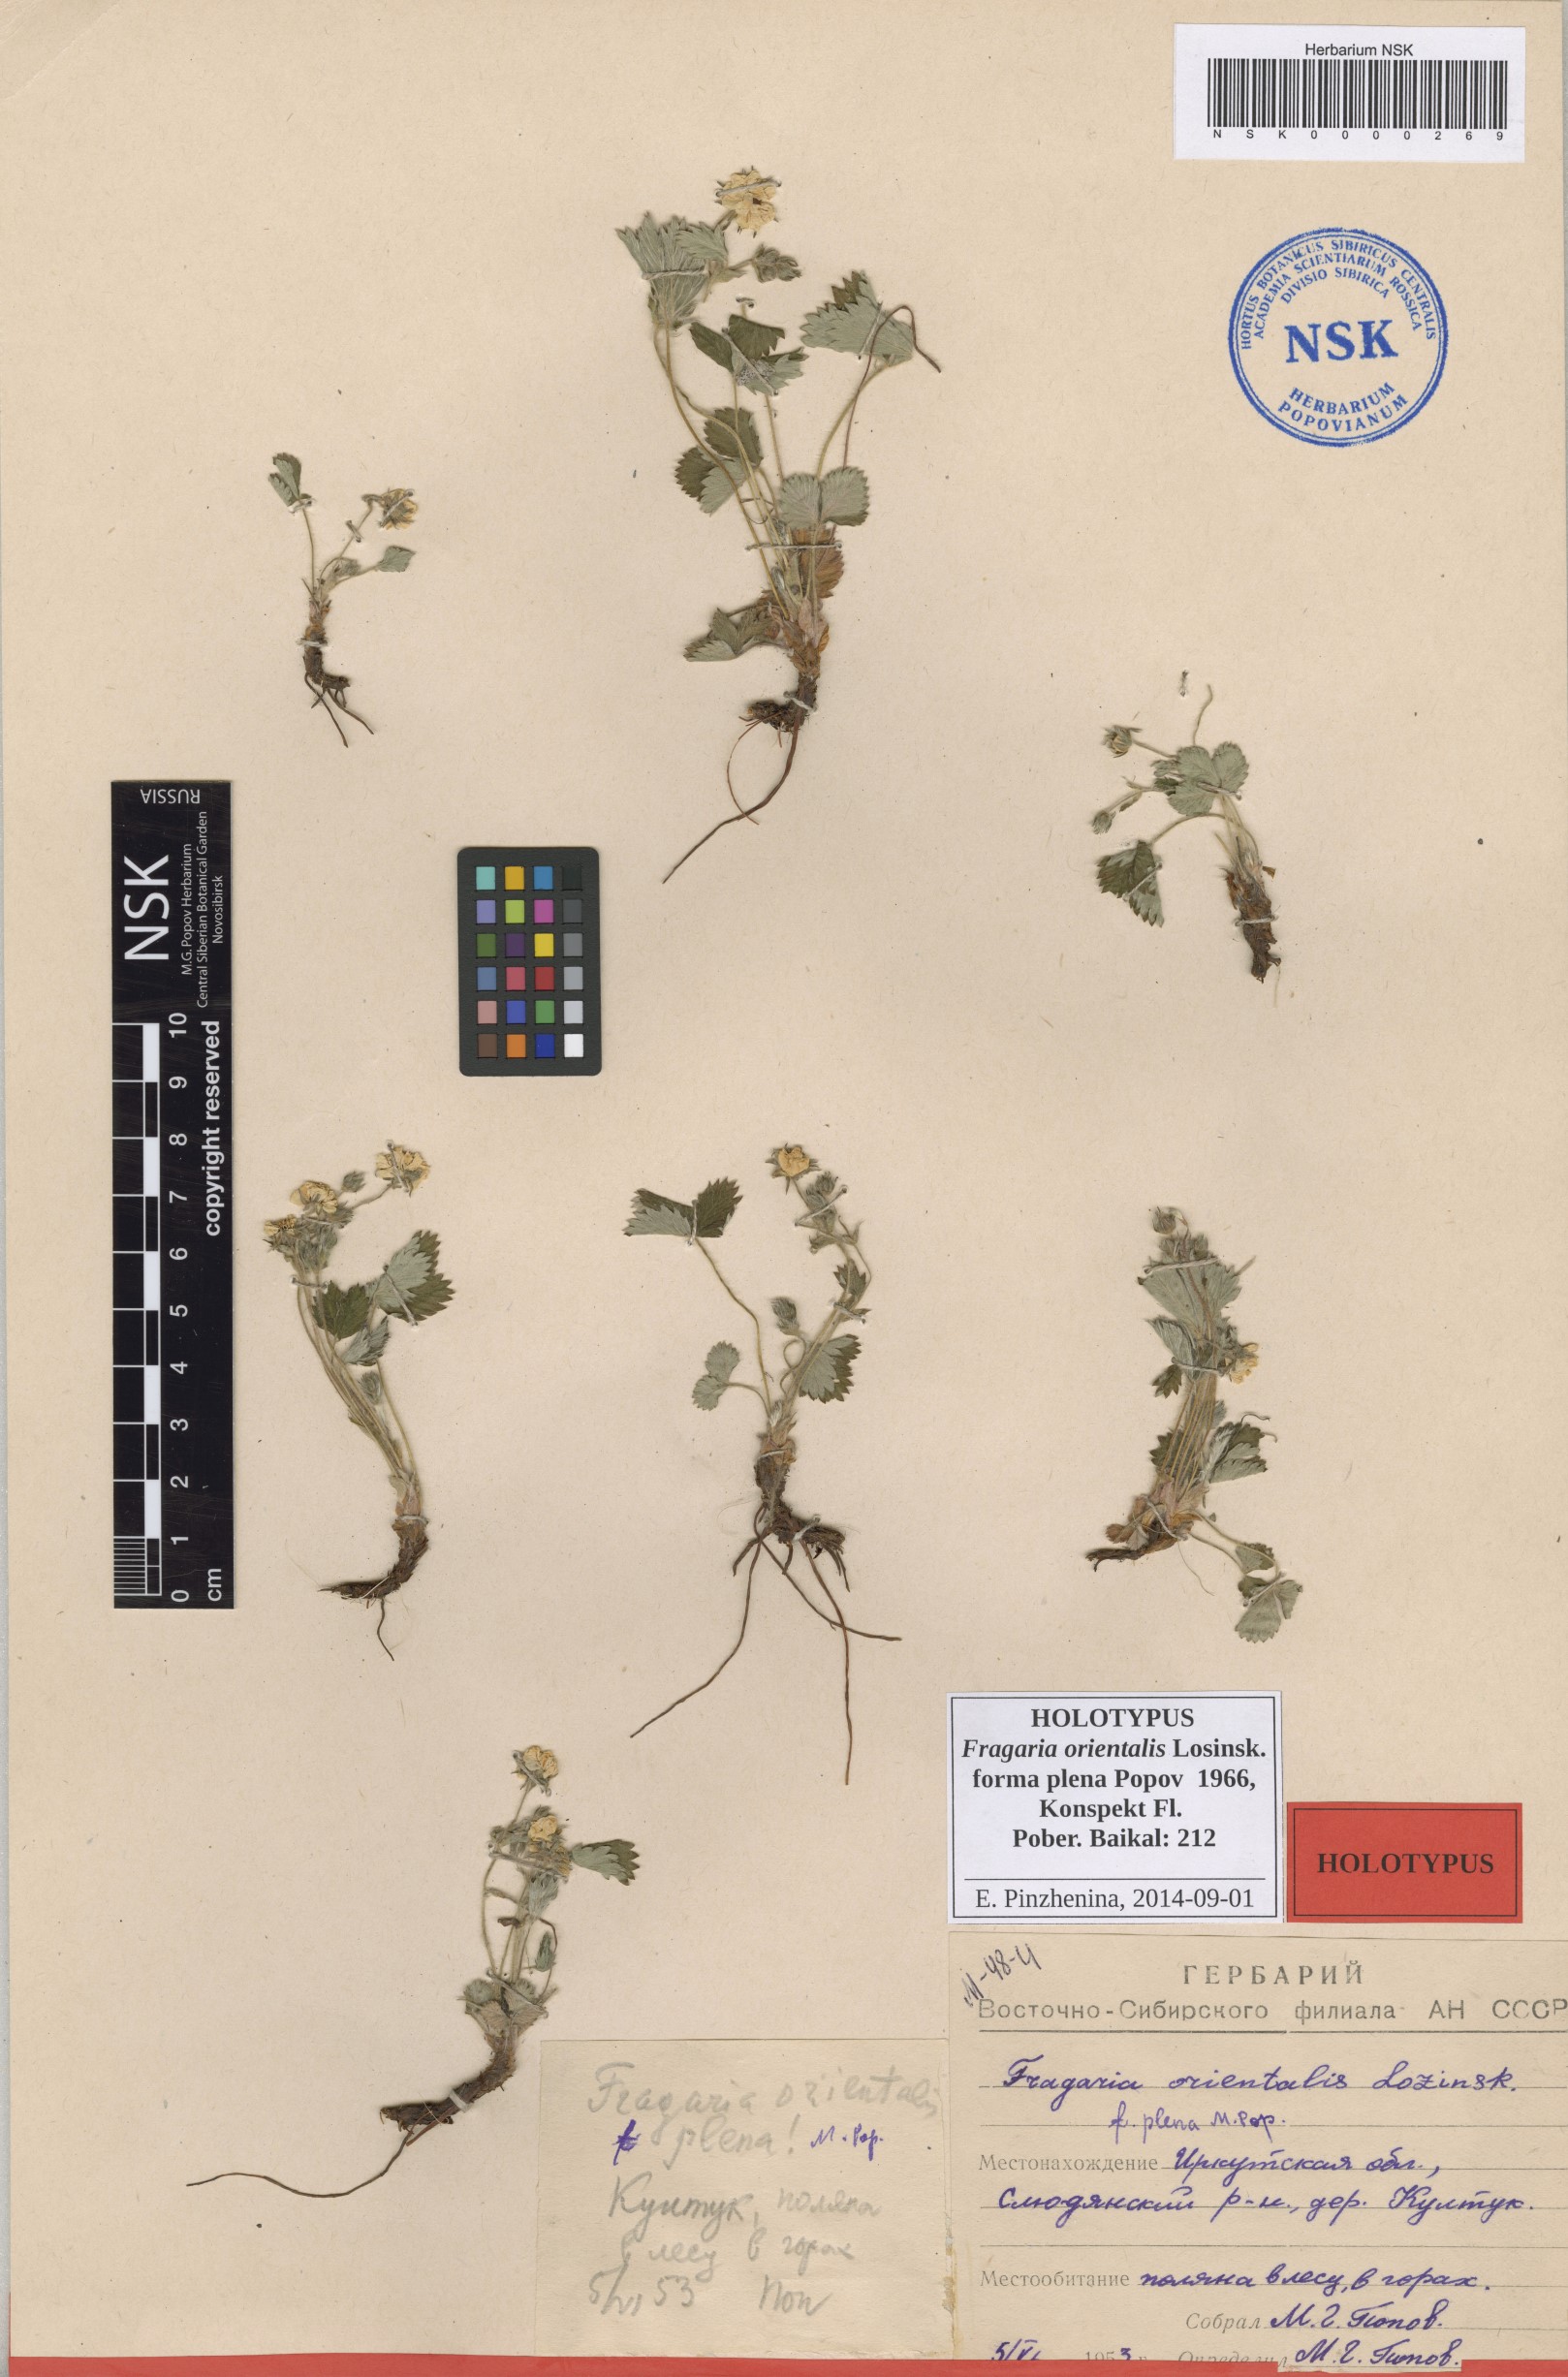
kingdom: Plantae
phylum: Tracheophyta
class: Magnoliopsida
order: Rosales
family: Rosaceae
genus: Fragaria
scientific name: Fragaria orientalis
